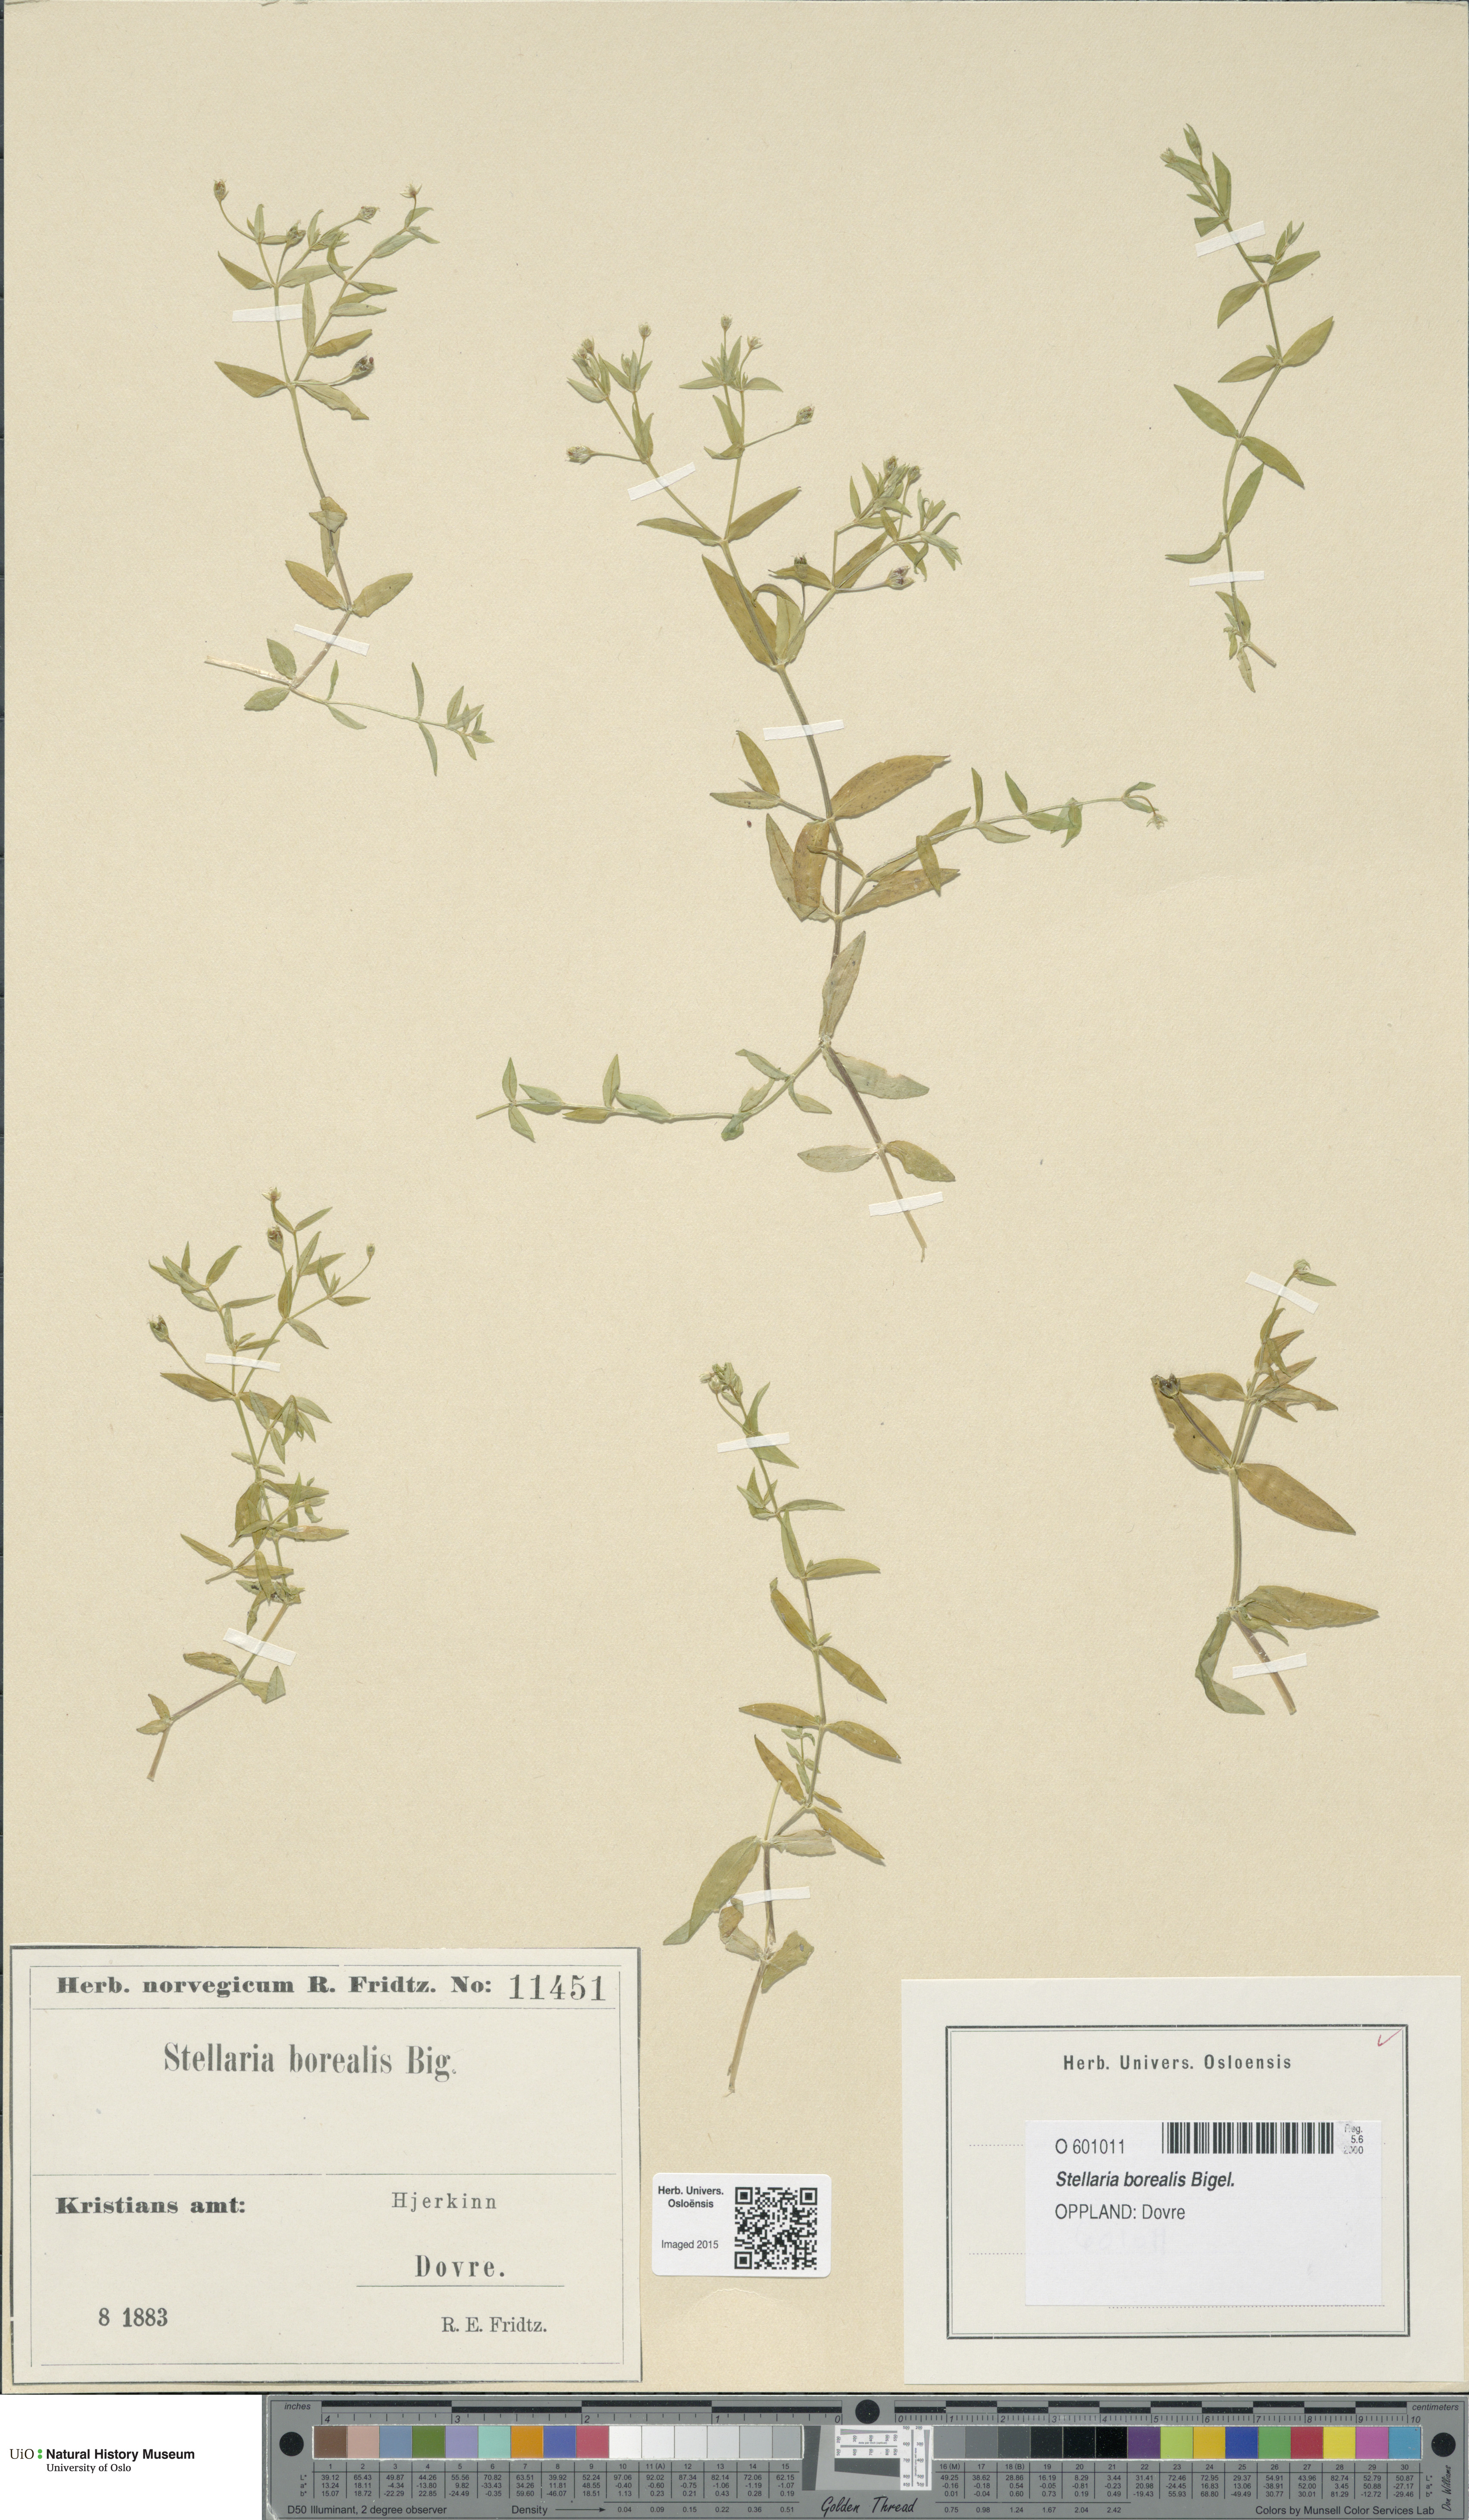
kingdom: Plantae
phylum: Tracheophyta
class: Magnoliopsida
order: Caryophyllales
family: Caryophyllaceae
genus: Stellaria
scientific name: Stellaria borealis
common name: Boreal starwort
